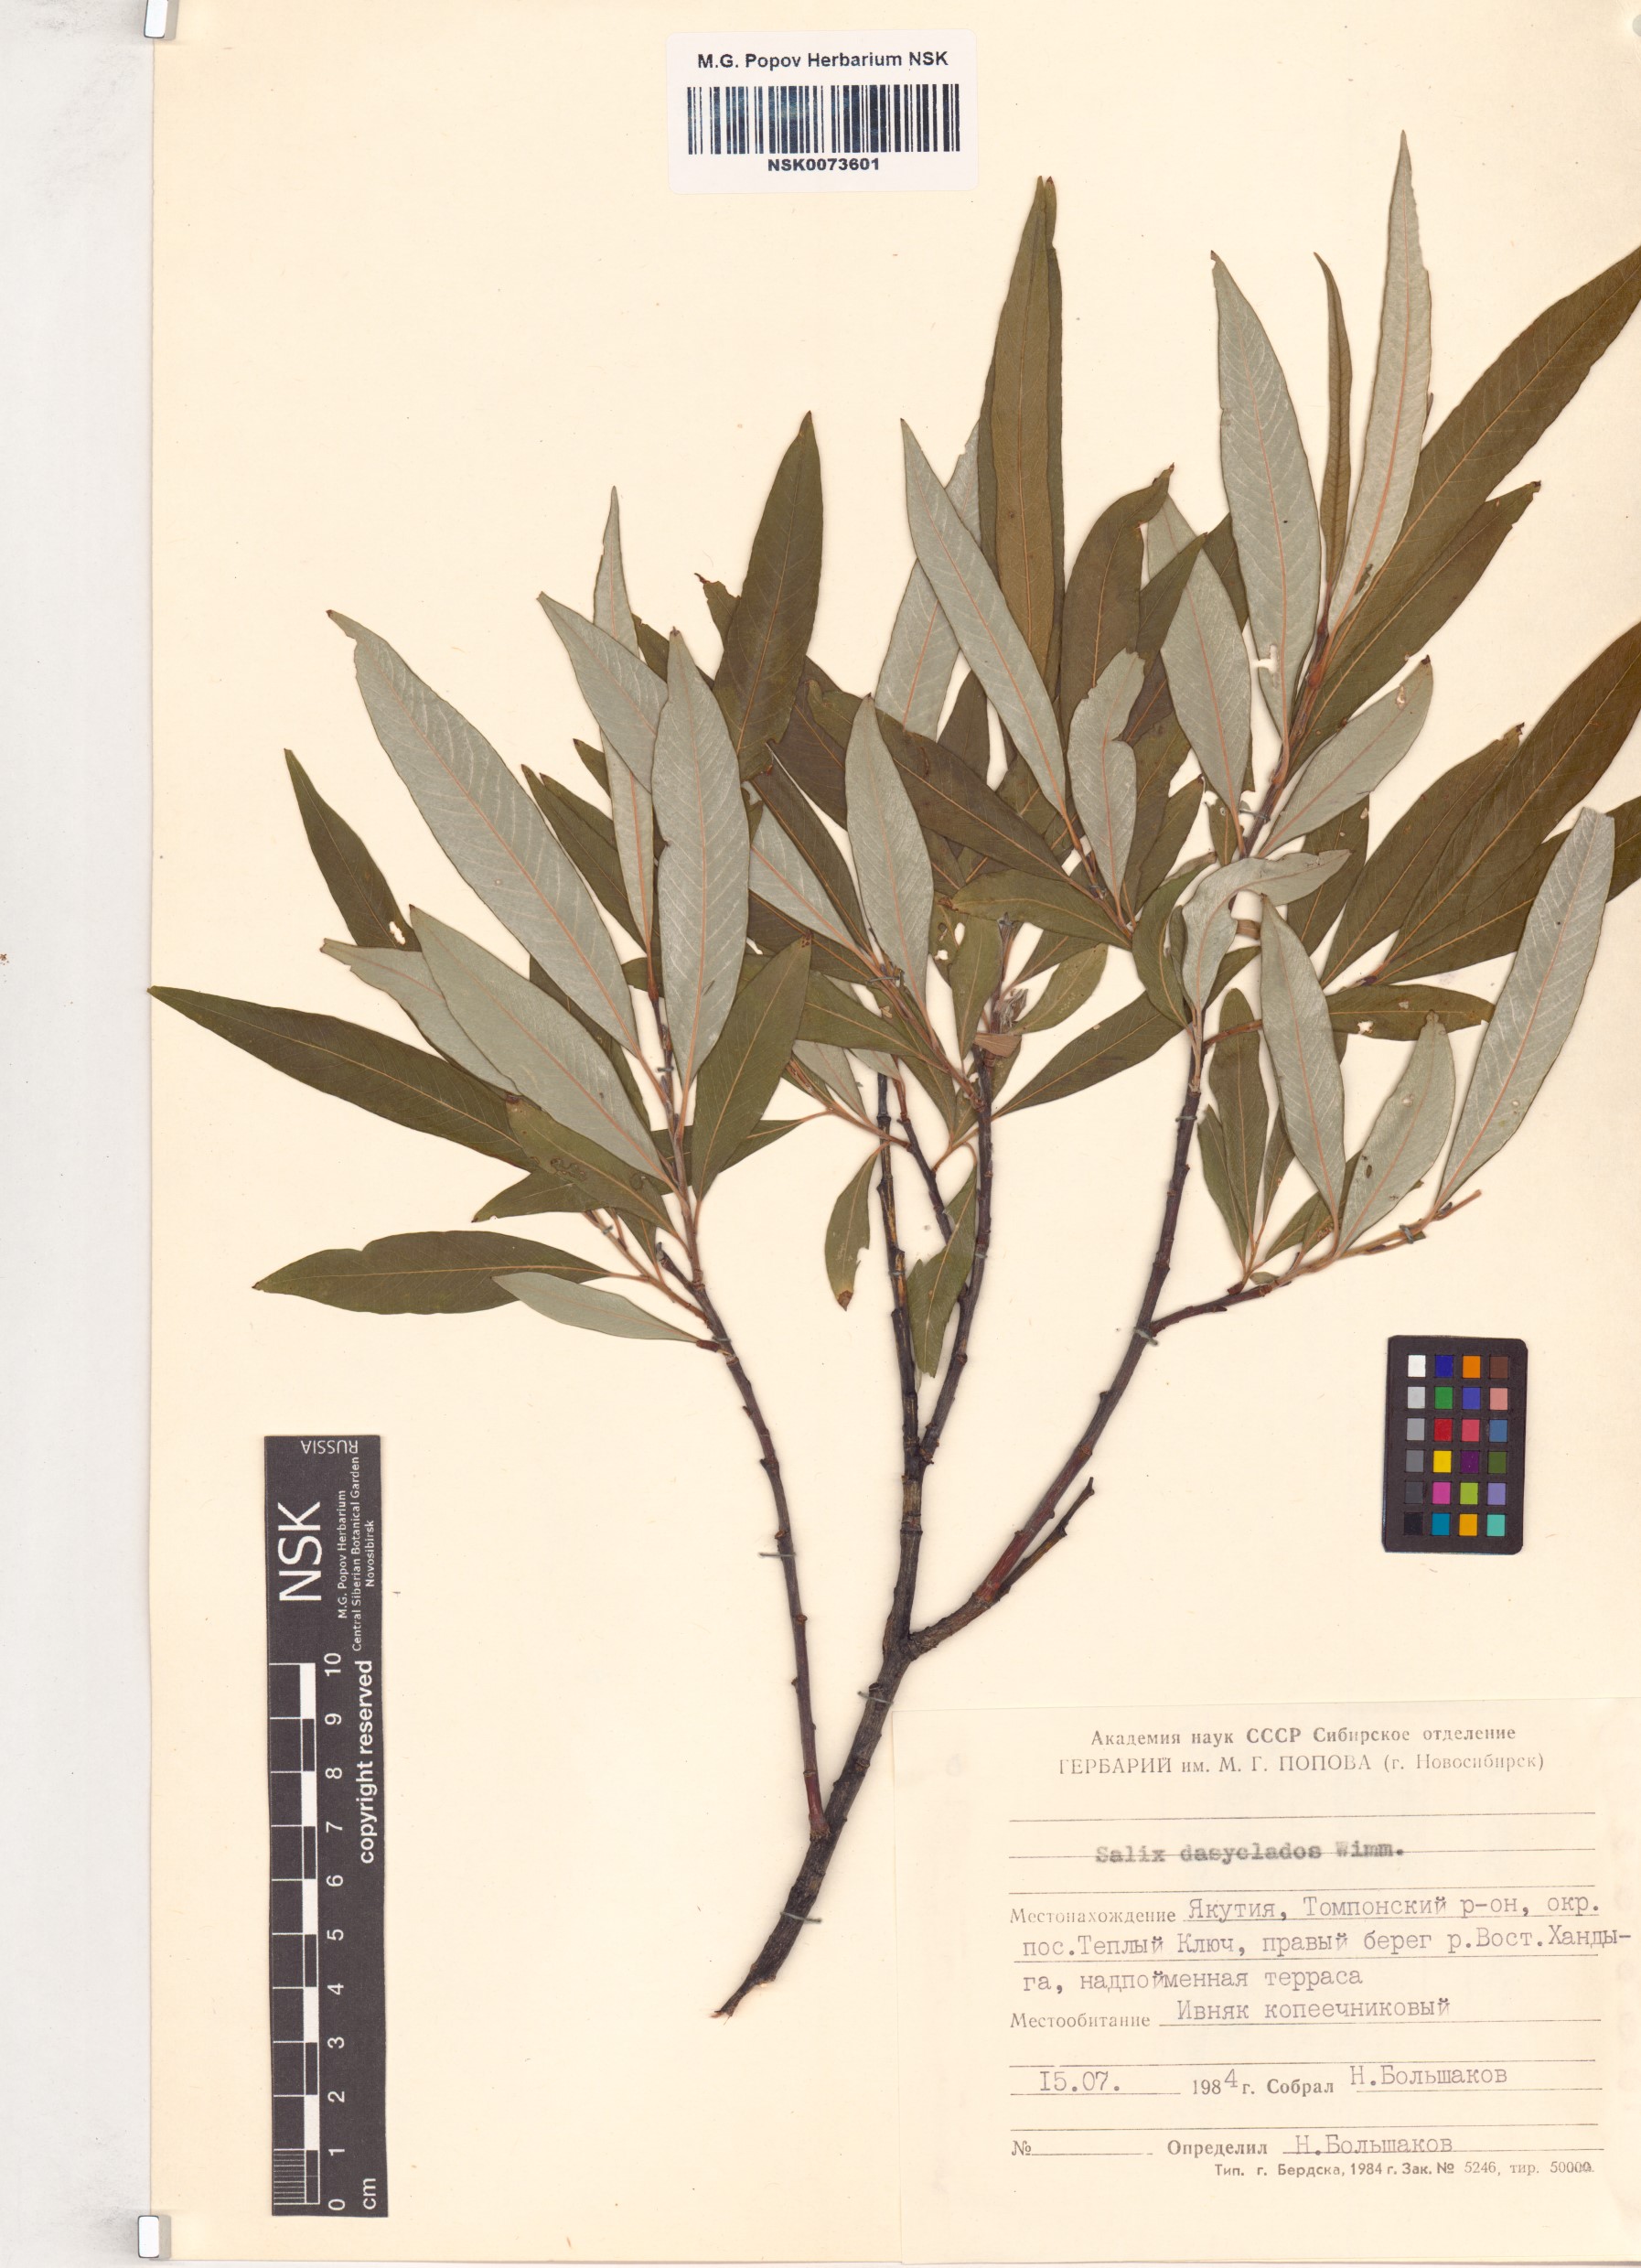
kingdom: Plantae
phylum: Tracheophyta
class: Magnoliopsida
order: Malpighiales
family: Salicaceae
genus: Salix
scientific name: Salix gmelinii
